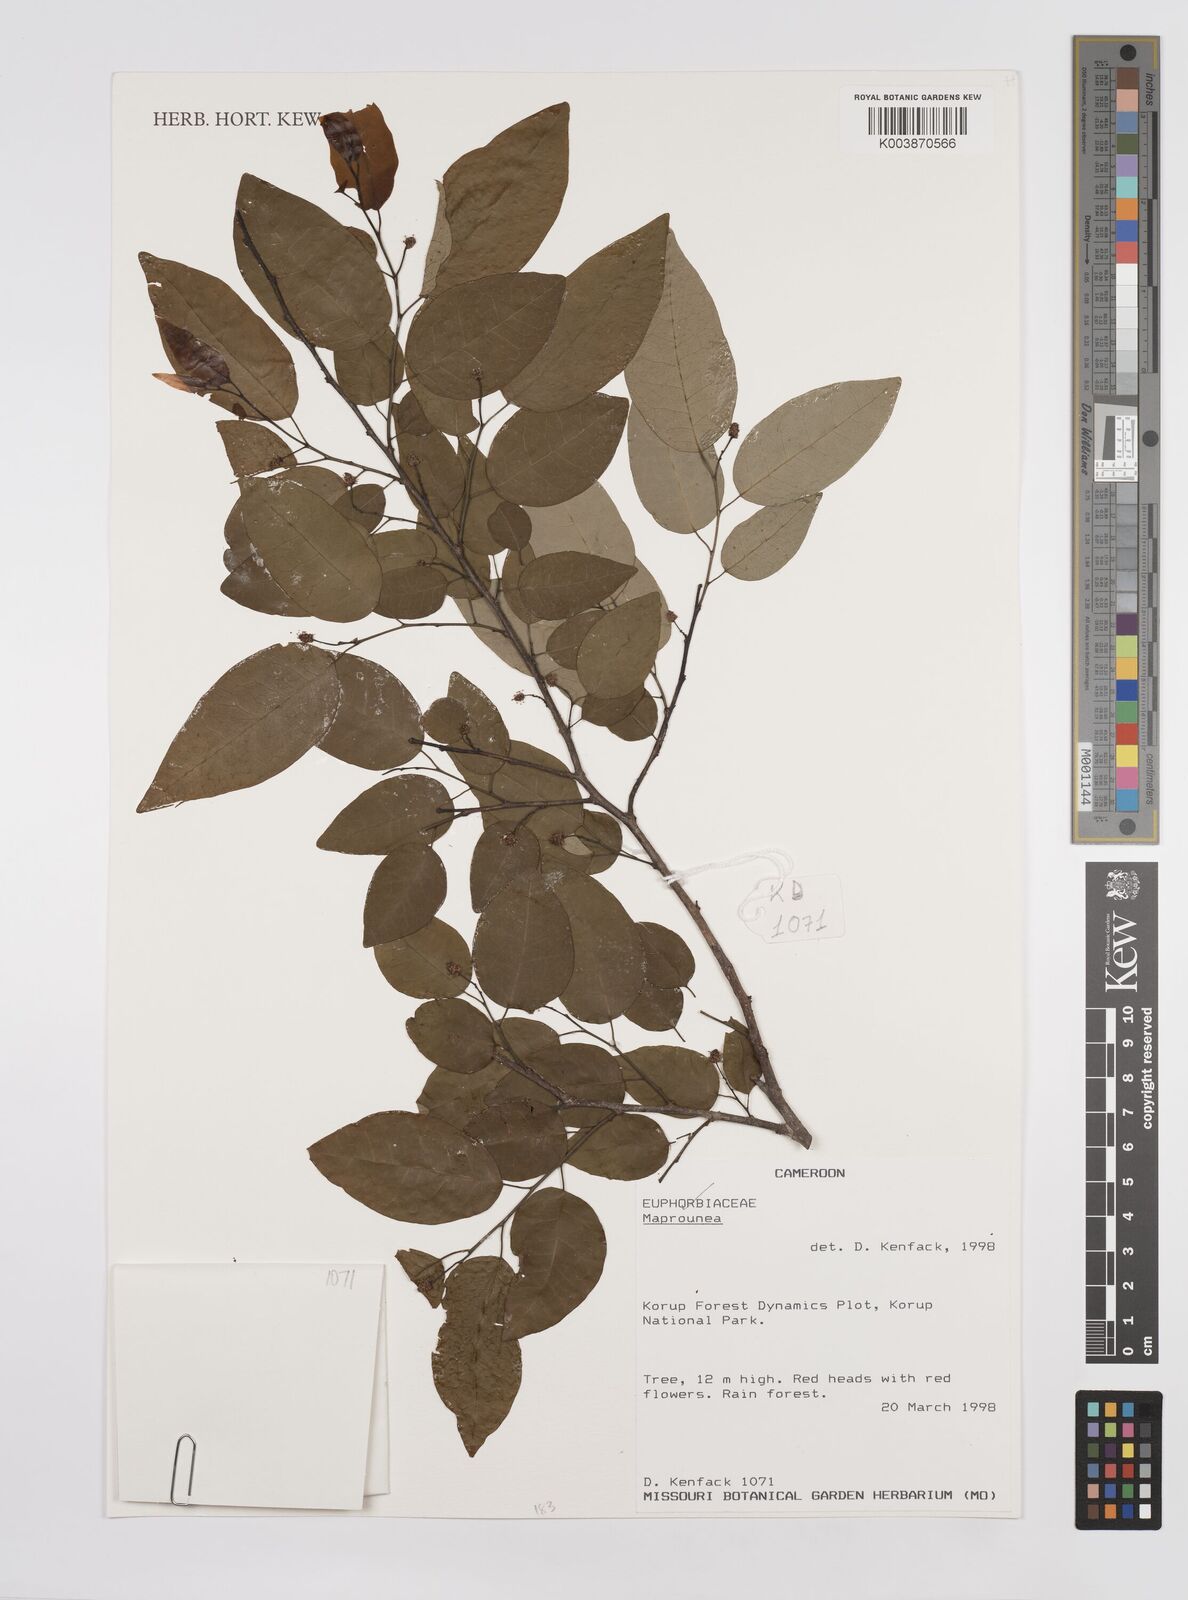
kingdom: Plantae
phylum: Tracheophyta
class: Magnoliopsida
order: Malpighiales
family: Euphorbiaceae
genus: Maprounea
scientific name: Maprounea
